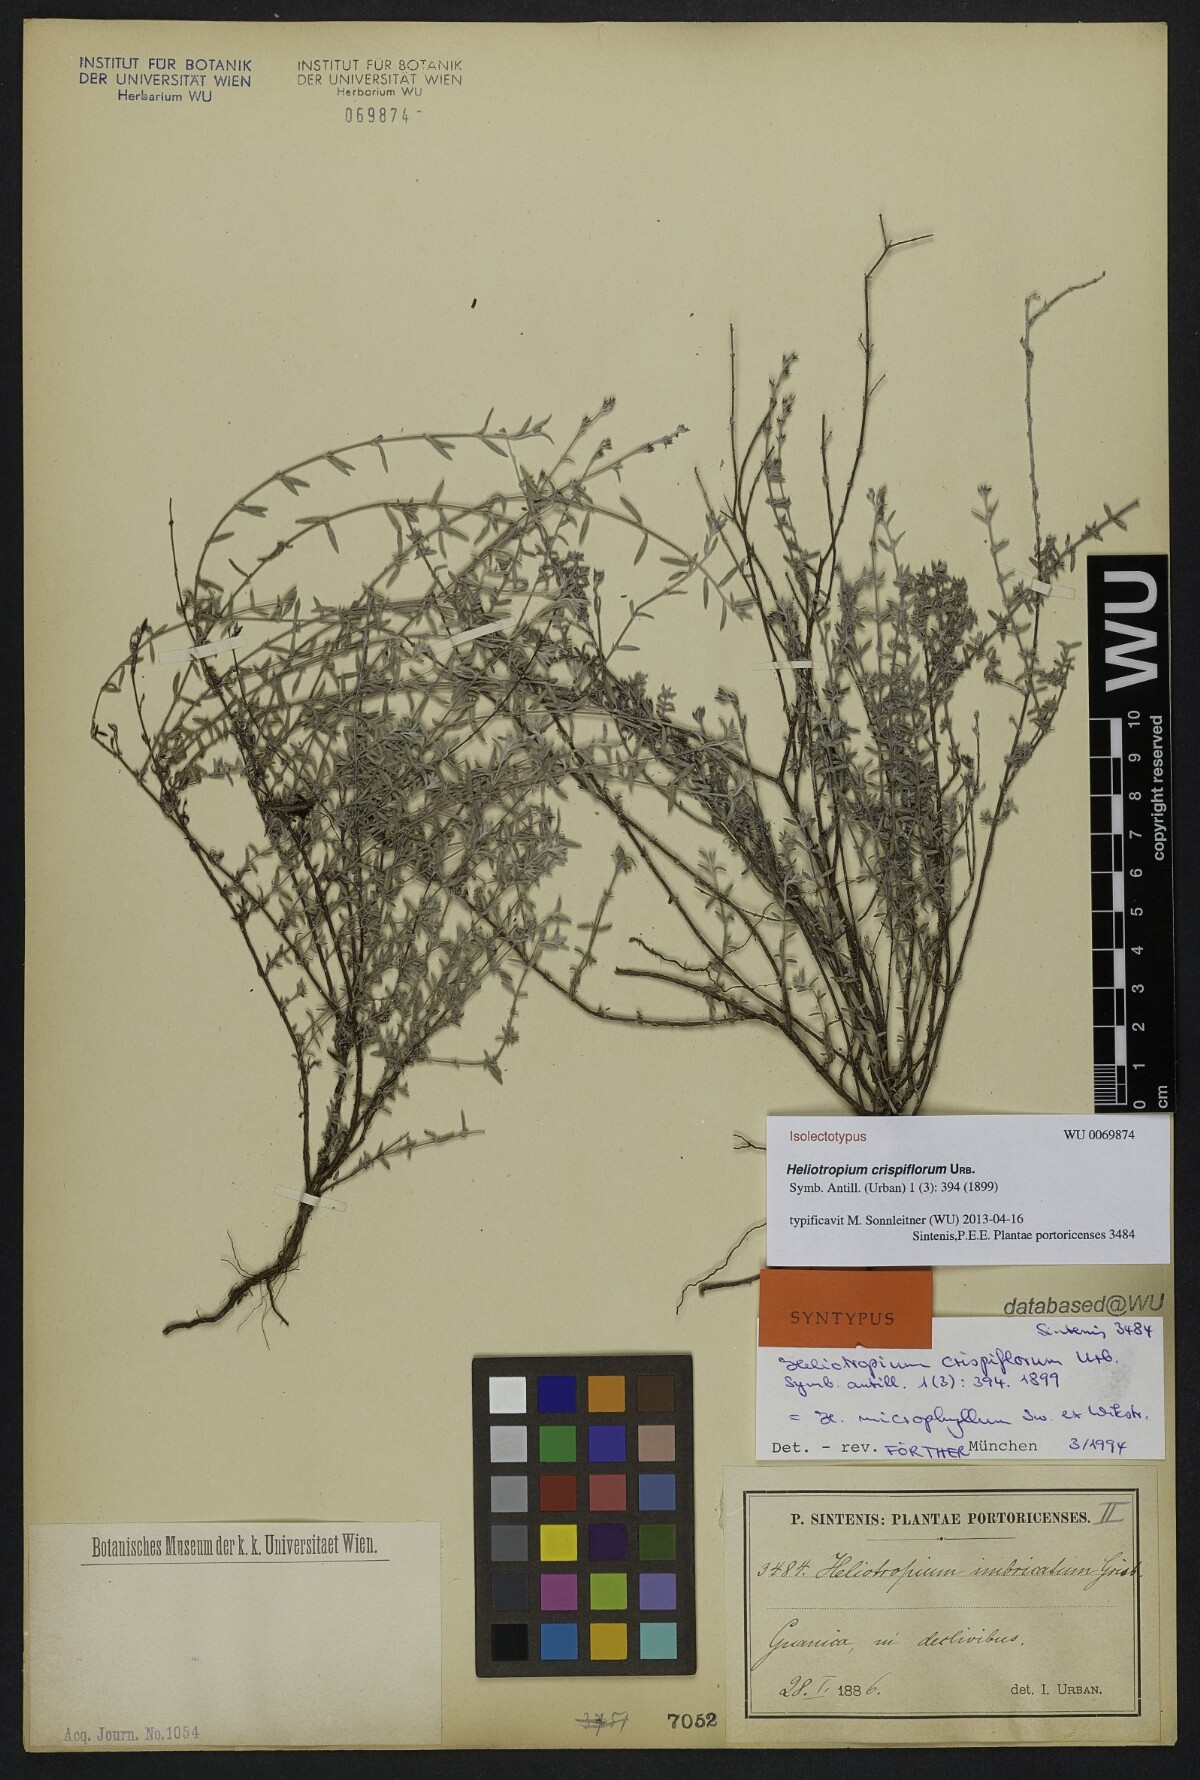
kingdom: Plantae
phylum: Tracheophyta
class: Magnoliopsida
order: Boraginales
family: Heliotropiaceae
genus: Euploca
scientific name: Euploca microphylla
